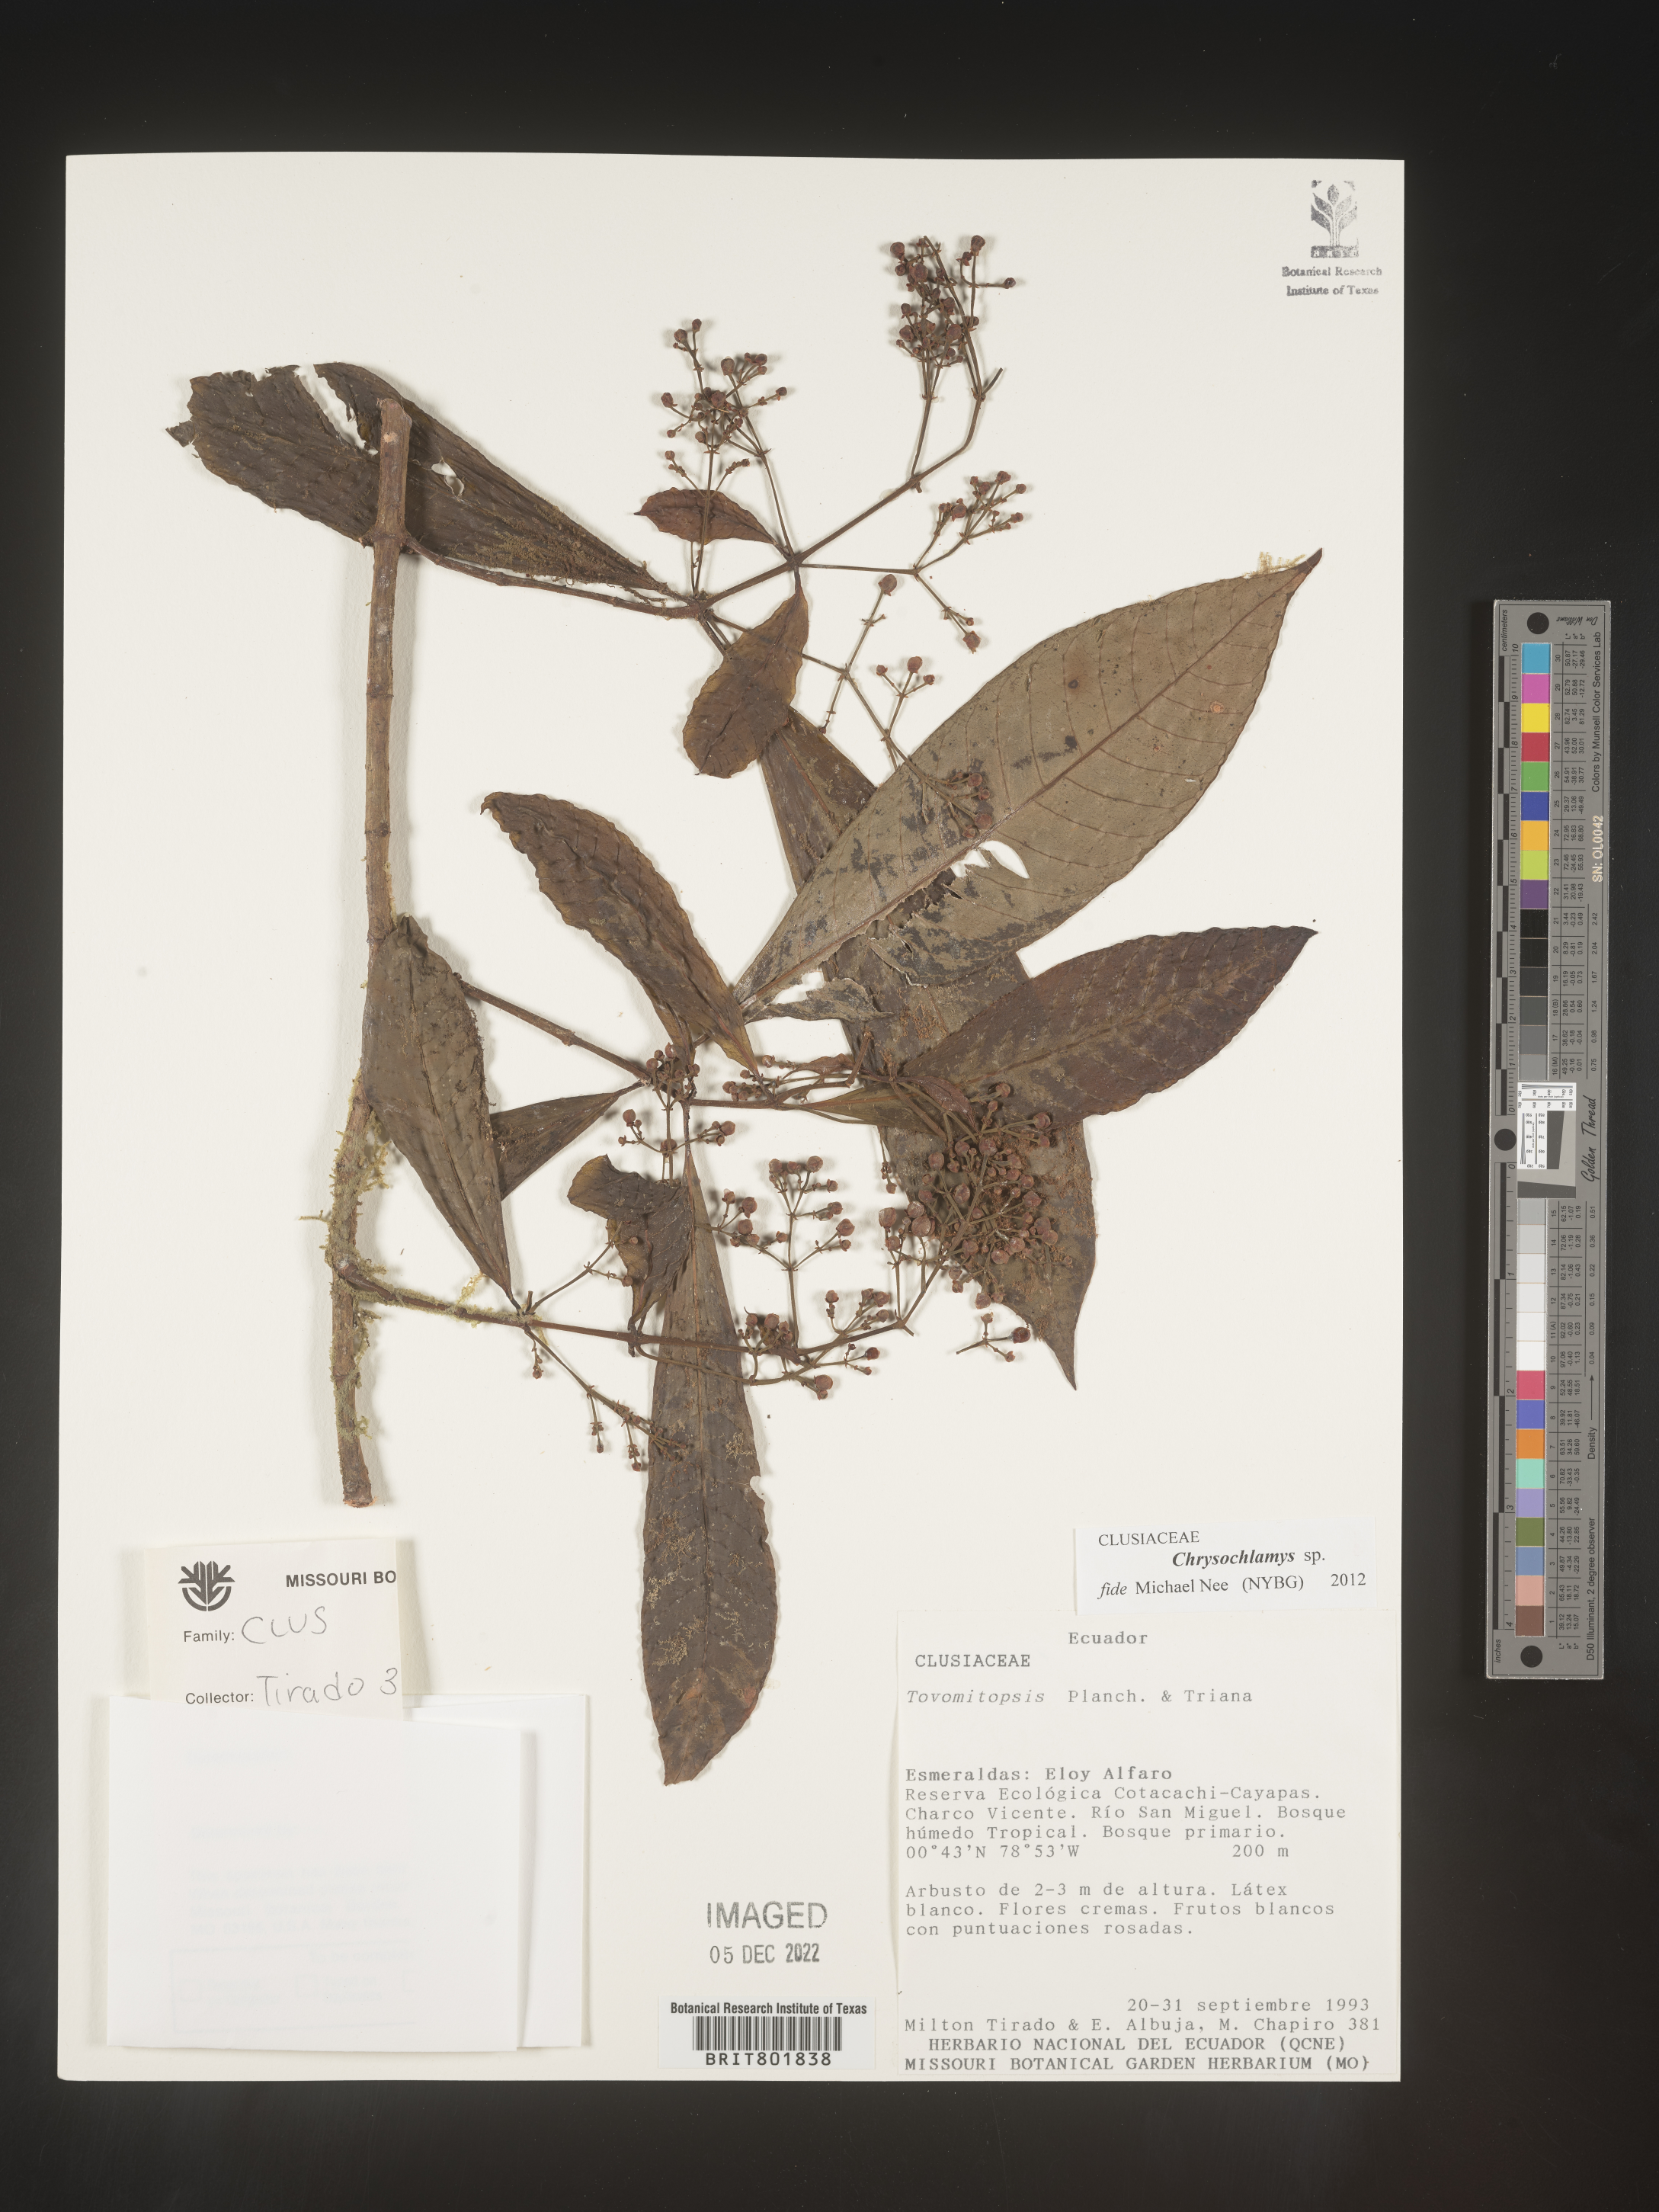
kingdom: Plantae
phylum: Tracheophyta
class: Magnoliopsida
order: Malpighiales
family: Clusiaceae
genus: Chrysochlamys
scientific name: Chrysochlamys
